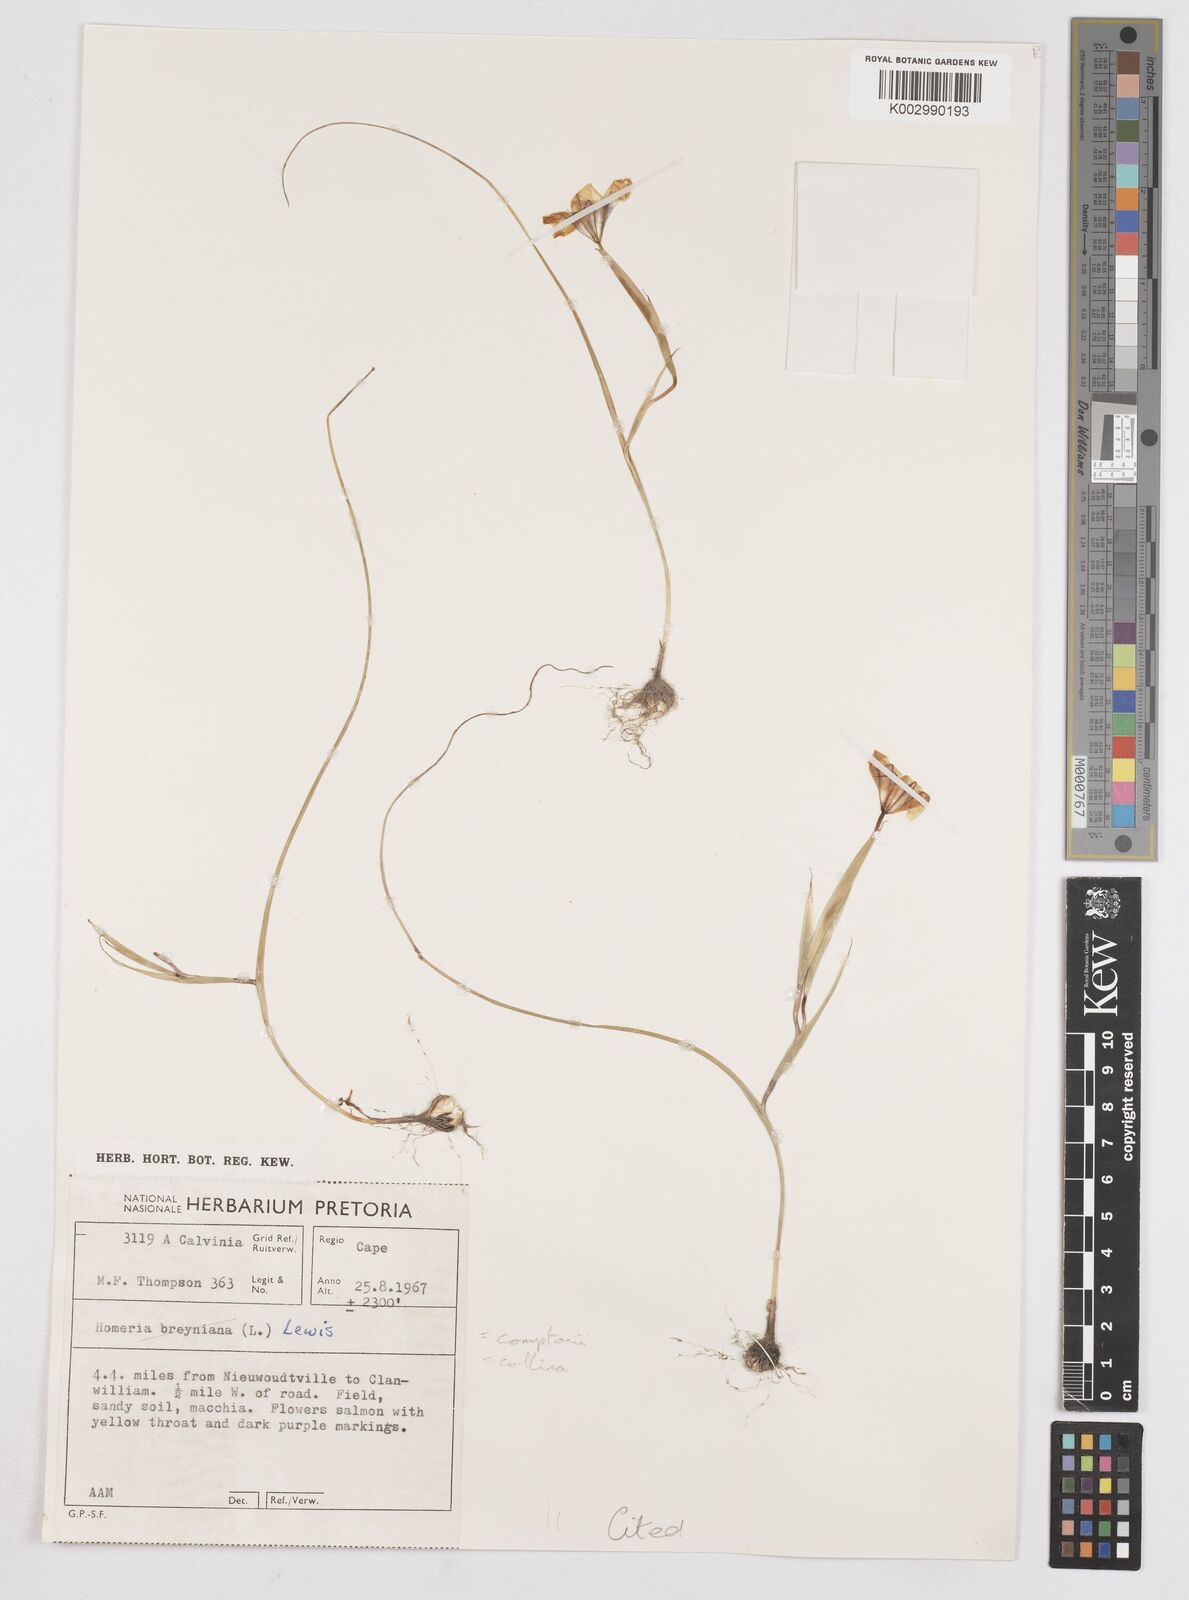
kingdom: Plantae
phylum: Tracheophyta
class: Liliopsida
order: Asparagales
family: Iridaceae
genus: Moraea
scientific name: Moraea vallisavium
